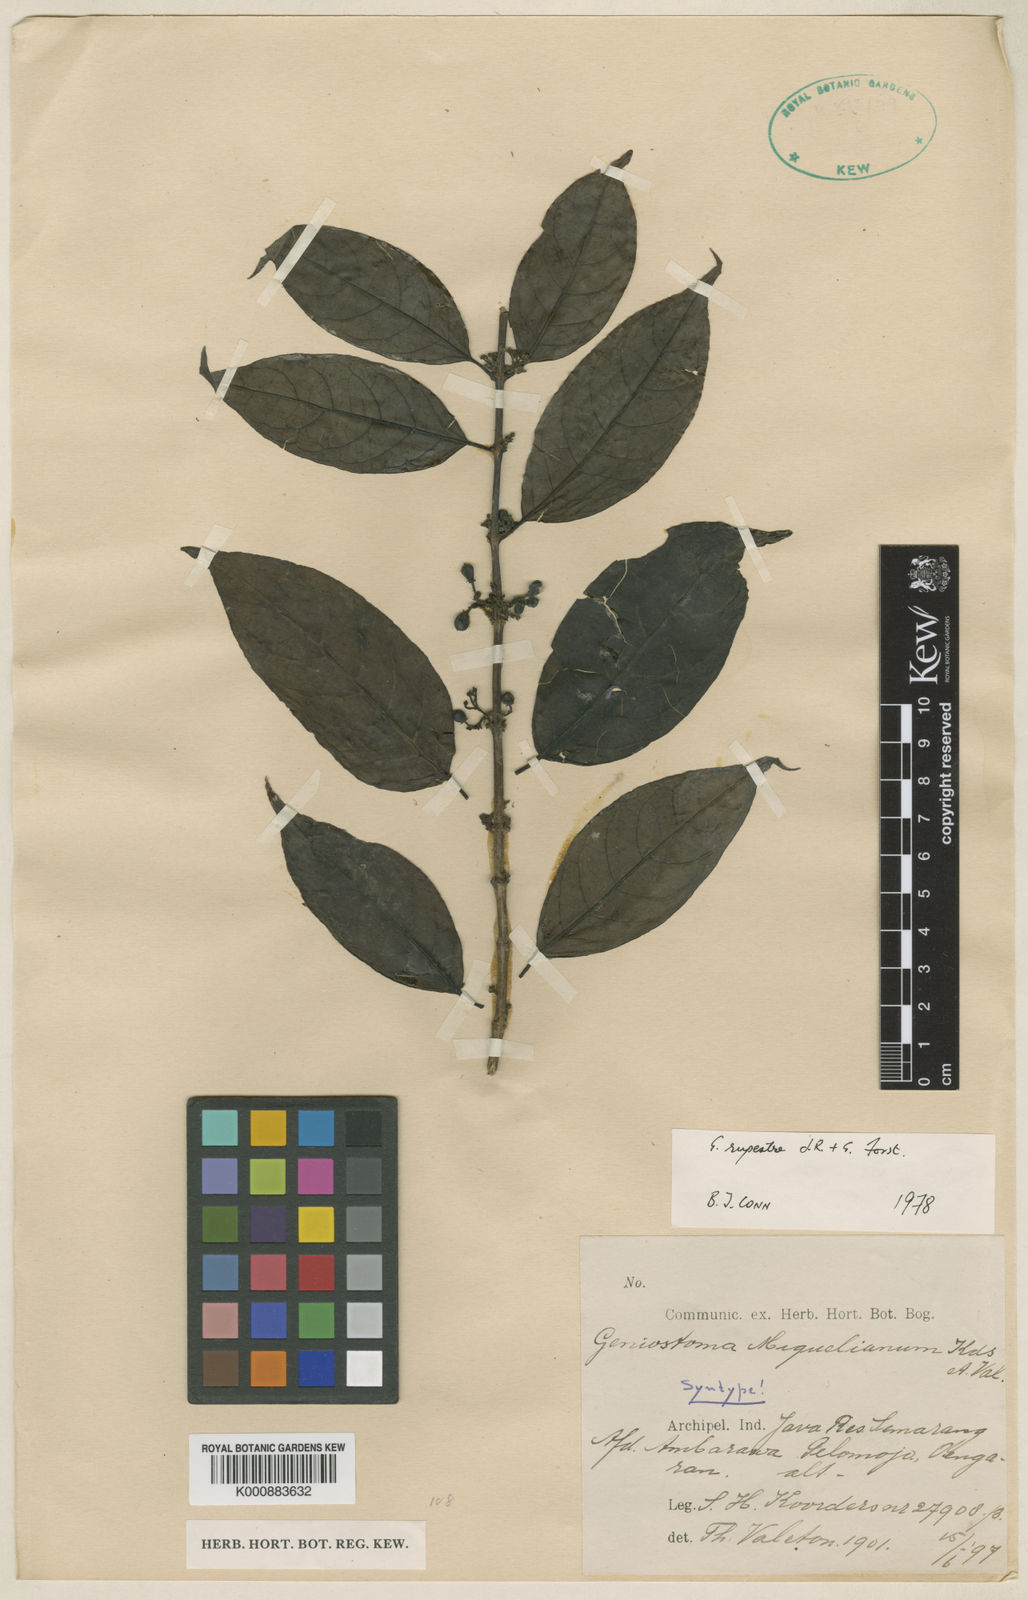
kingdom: Plantae
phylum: Tracheophyta
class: Magnoliopsida
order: Gentianales
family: Loganiaceae
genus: Geniostoma
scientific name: Geniostoma rupestre
